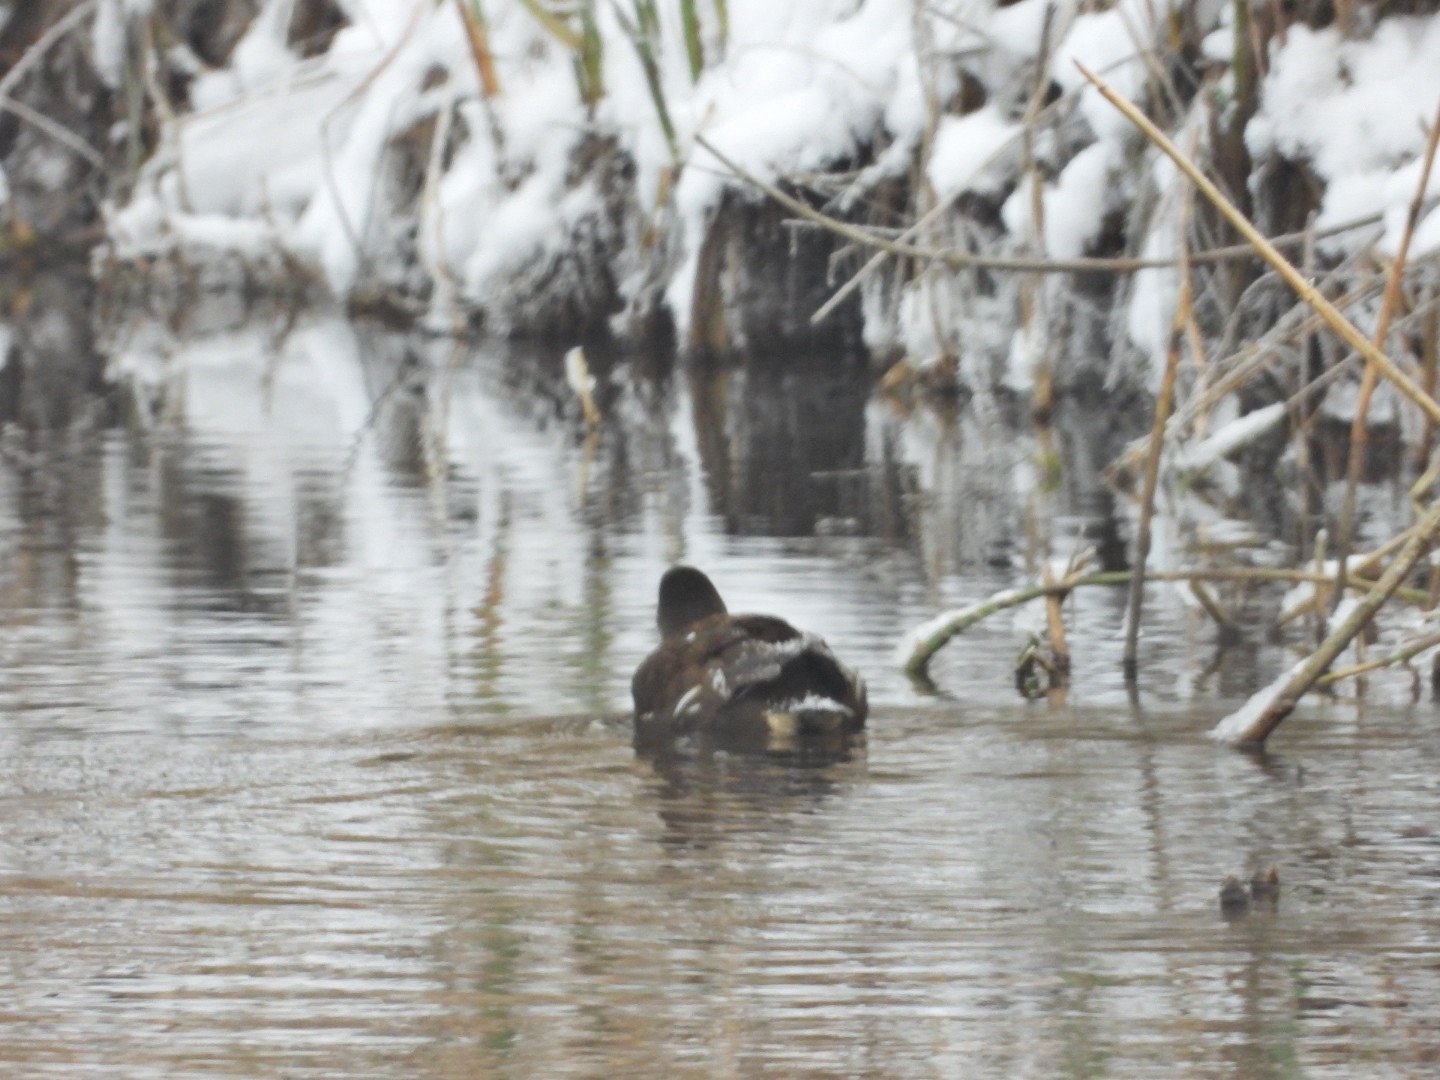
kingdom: Animalia
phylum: Chordata
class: Aves
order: Gruiformes
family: Rallidae
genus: Gallinula
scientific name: Gallinula chloropus
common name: Grønbenet rørhøne
